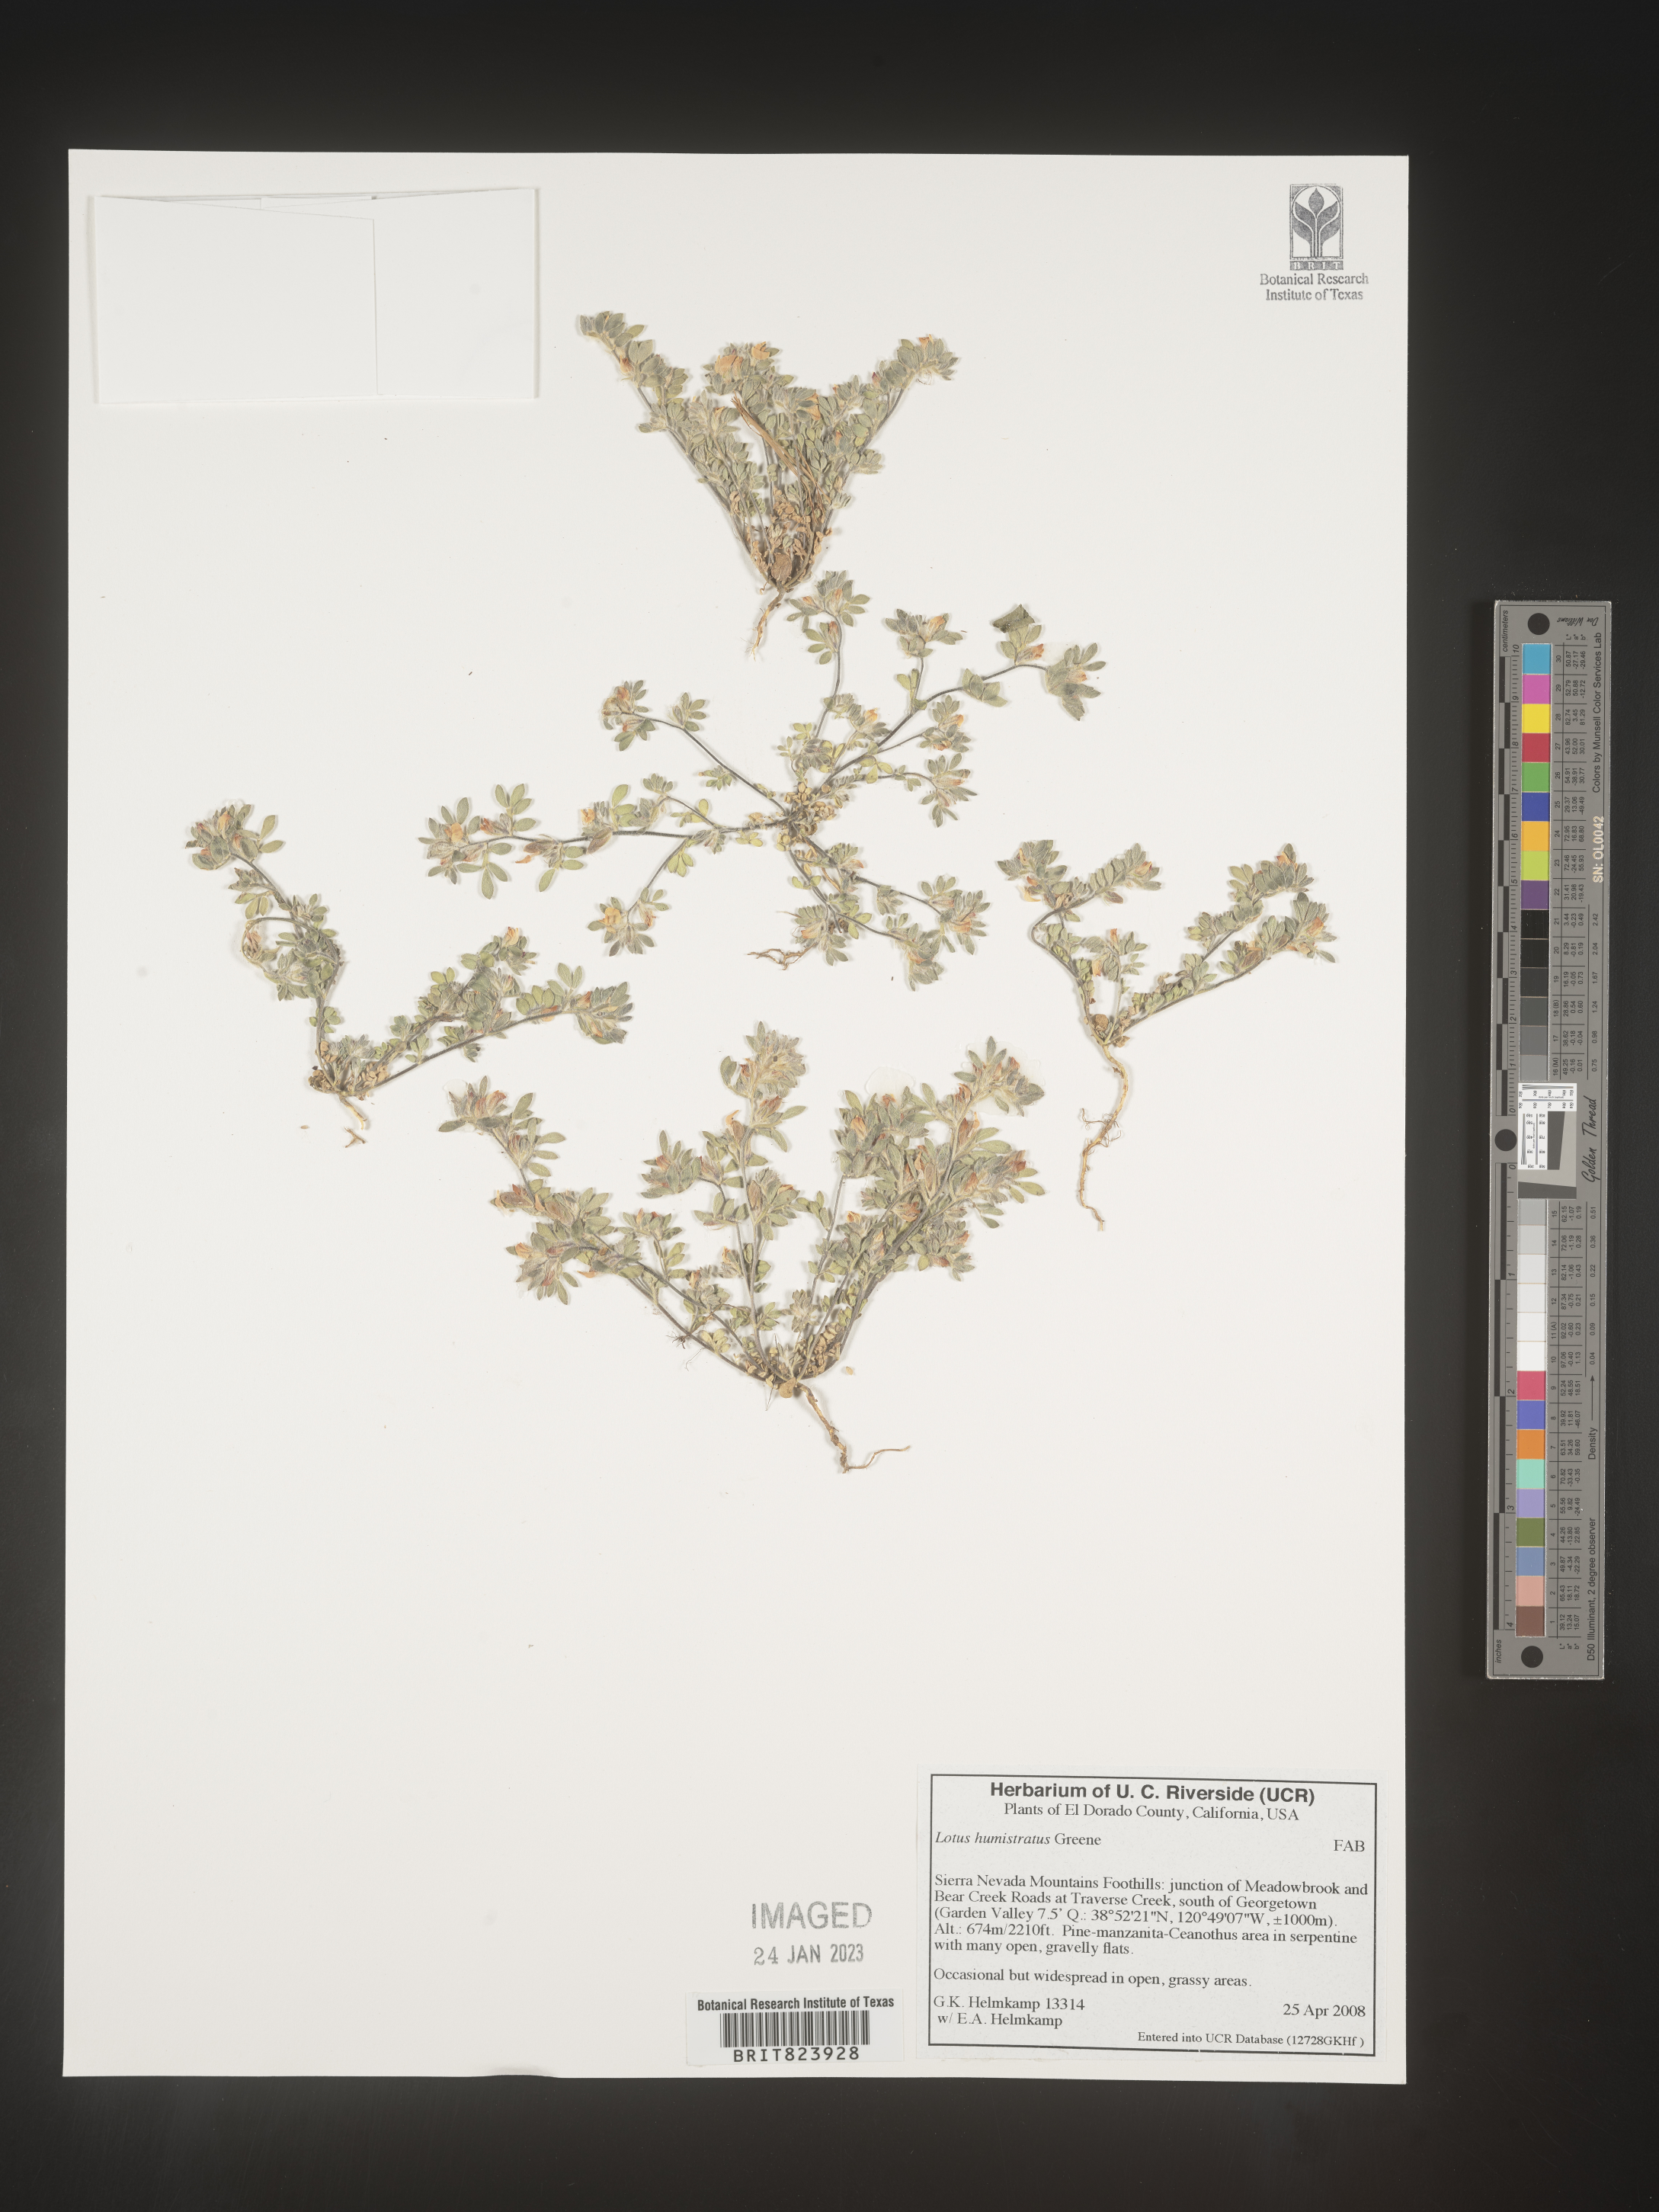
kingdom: Plantae
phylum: Tracheophyta
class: Magnoliopsida
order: Fabales
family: Fabaceae
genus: Acmispon
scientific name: Acmispon brachycarpus
